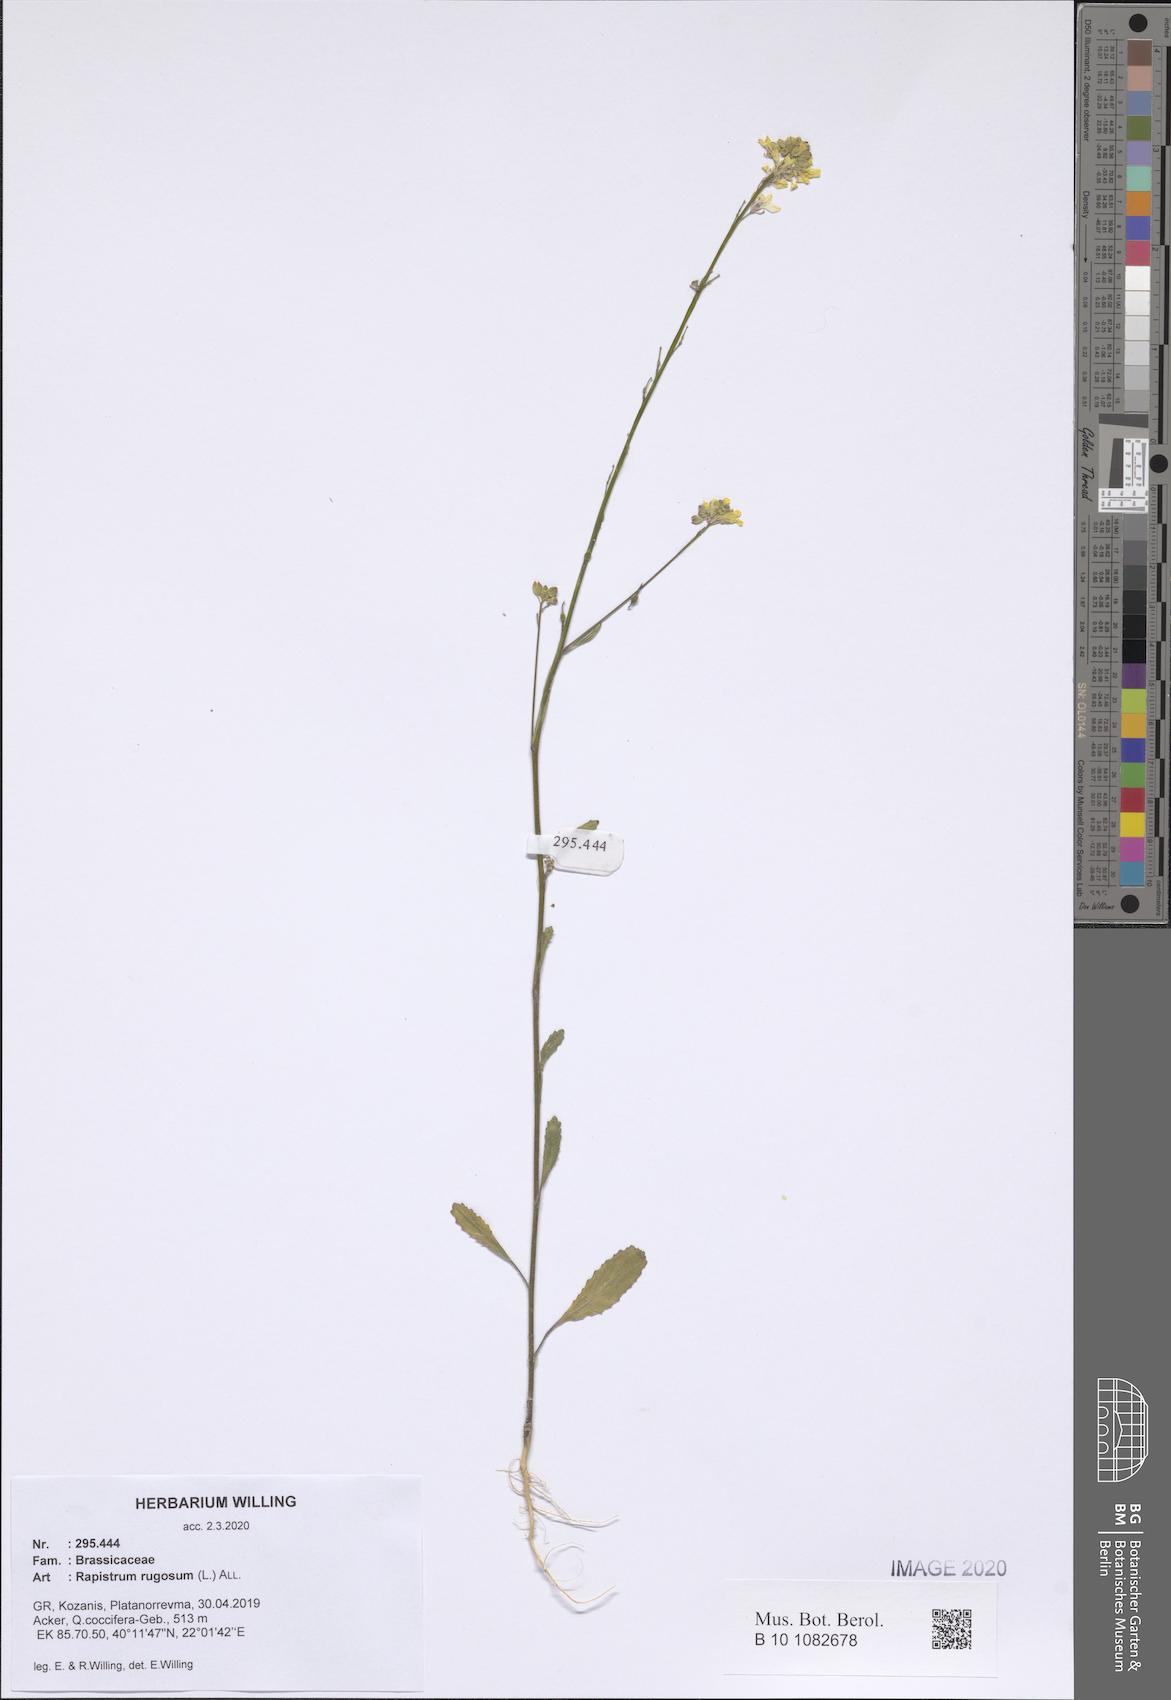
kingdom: Plantae
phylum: Tracheophyta
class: Magnoliopsida
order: Brassicales
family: Brassicaceae
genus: Rapistrum
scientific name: Rapistrum rugosum
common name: Annual bastardcabbage
